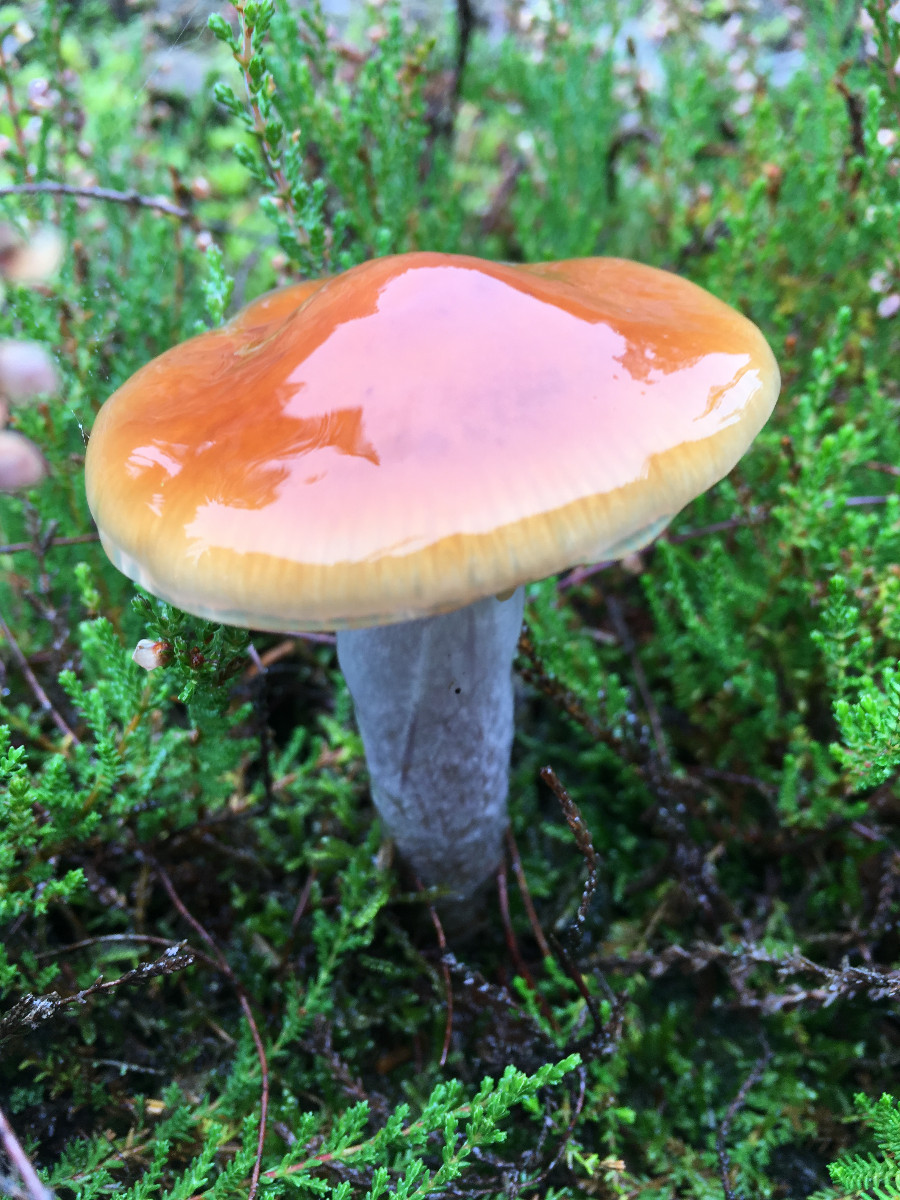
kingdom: Fungi
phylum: Basidiomycota
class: Agaricomycetes
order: Agaricales
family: Cortinariaceae
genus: Cortinarius
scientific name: Cortinarius collinitus
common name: spættet slørhat
